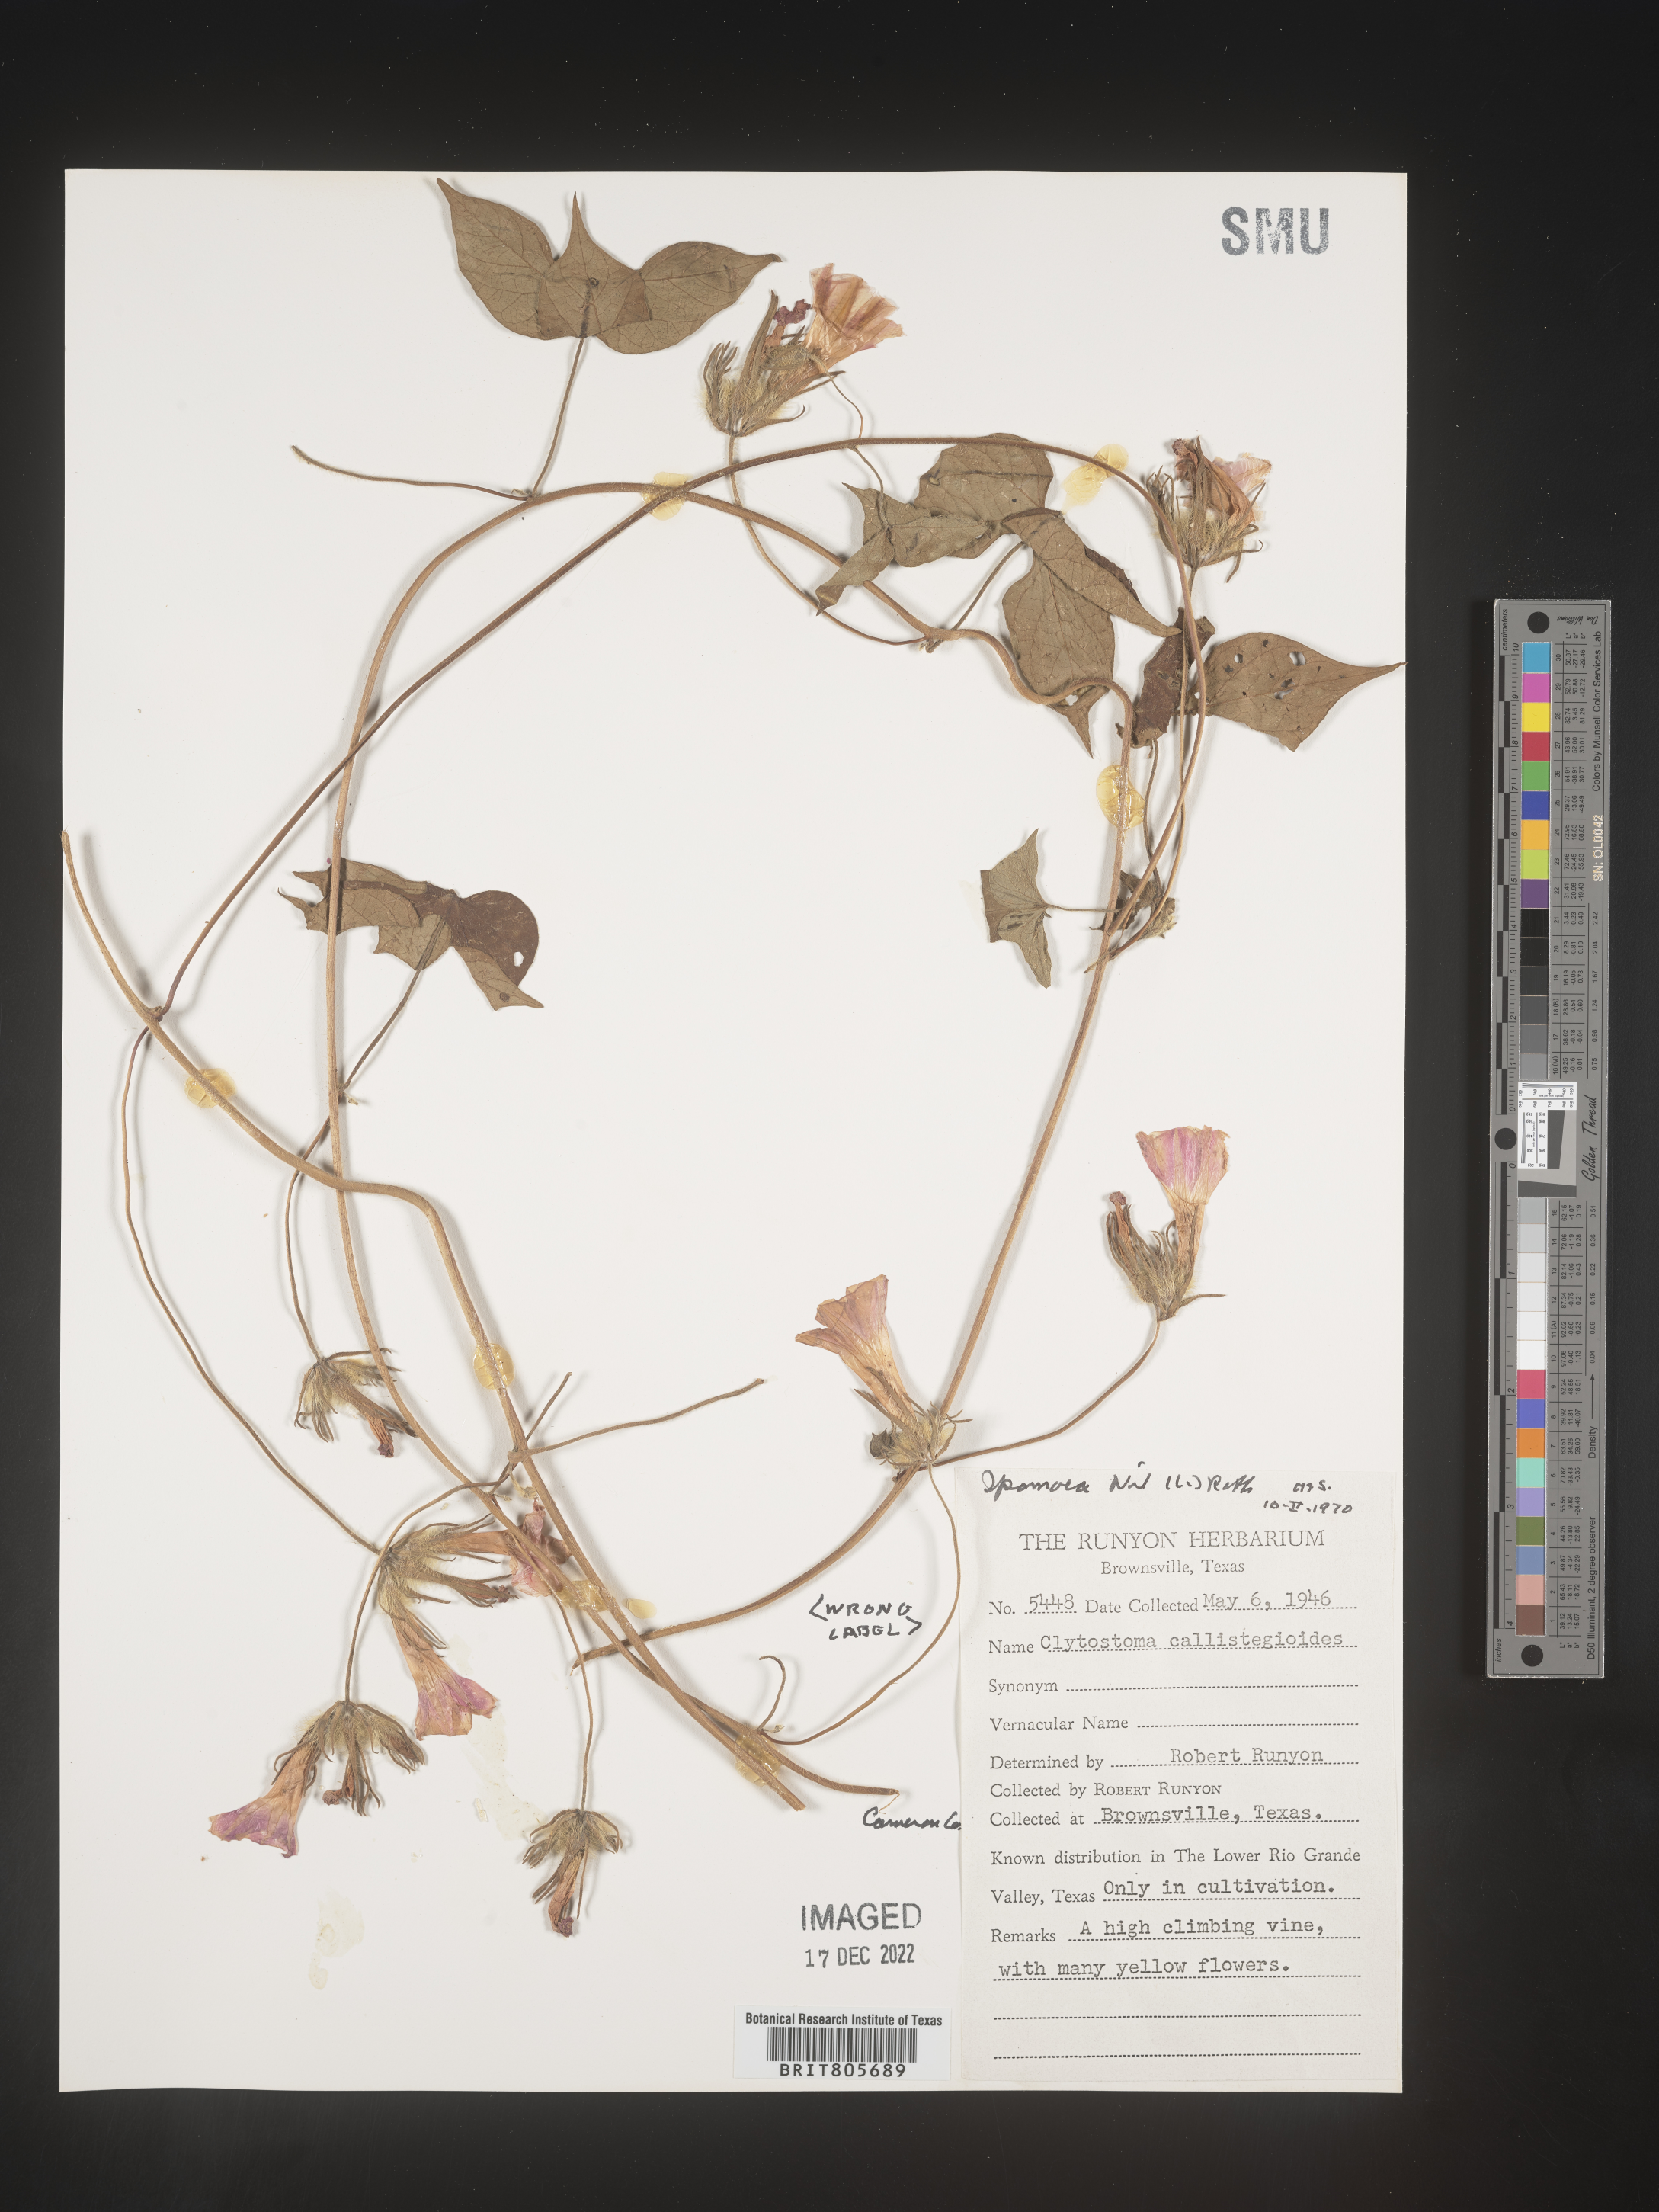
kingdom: Plantae
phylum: Tracheophyta
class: Magnoliopsida
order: Solanales
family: Convolvulaceae
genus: Ipomoea
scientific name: Ipomoea
